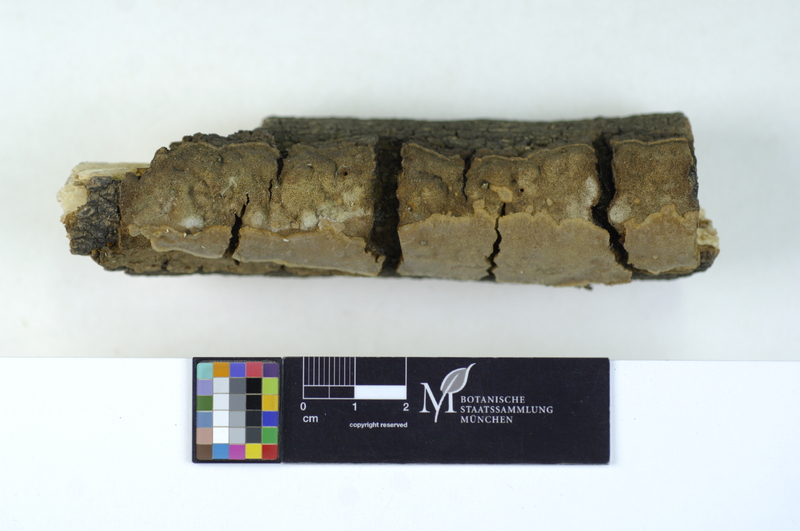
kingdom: Plantae
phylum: Tracheophyta
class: Magnoliopsida
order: Dipsacales
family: Viburnaceae
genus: Viburnum
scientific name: Viburnum
